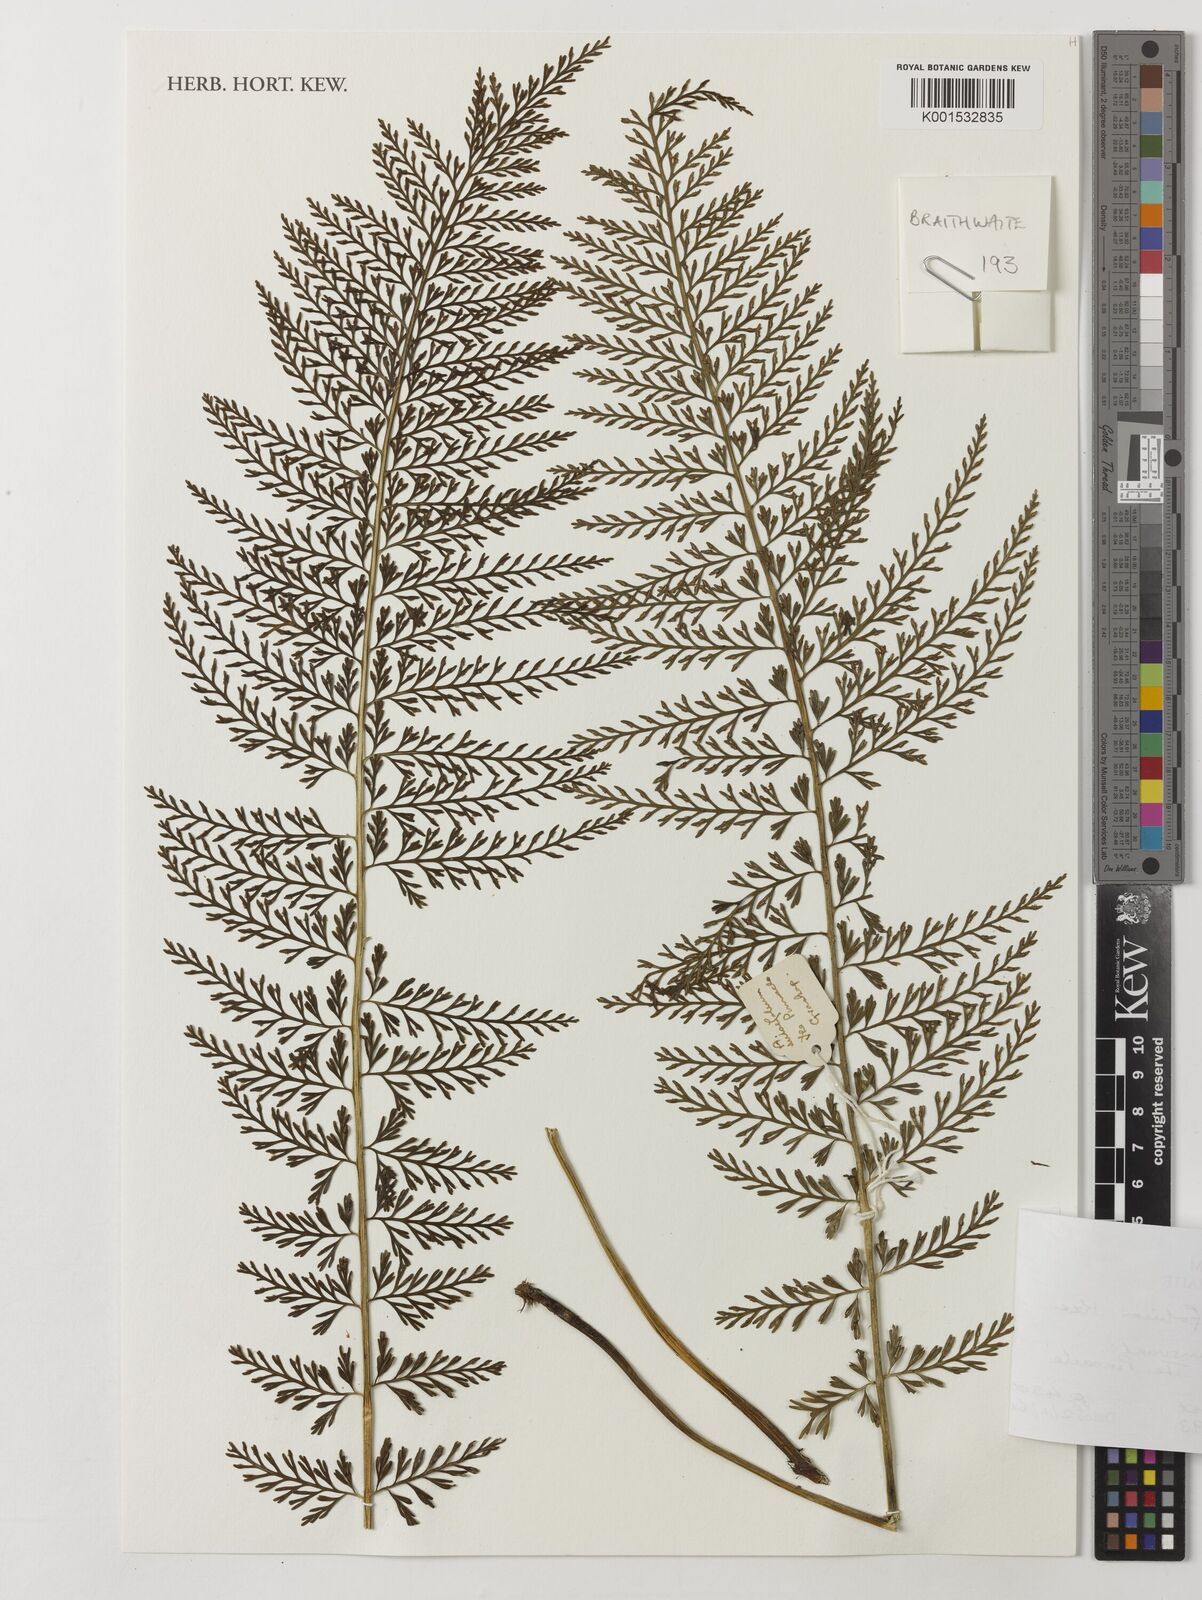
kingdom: Plantae
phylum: Tracheophyta
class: Polypodiopsida
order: Polypodiales
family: Aspleniaceae
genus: Asplenium
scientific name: Asplenium rutifolium
